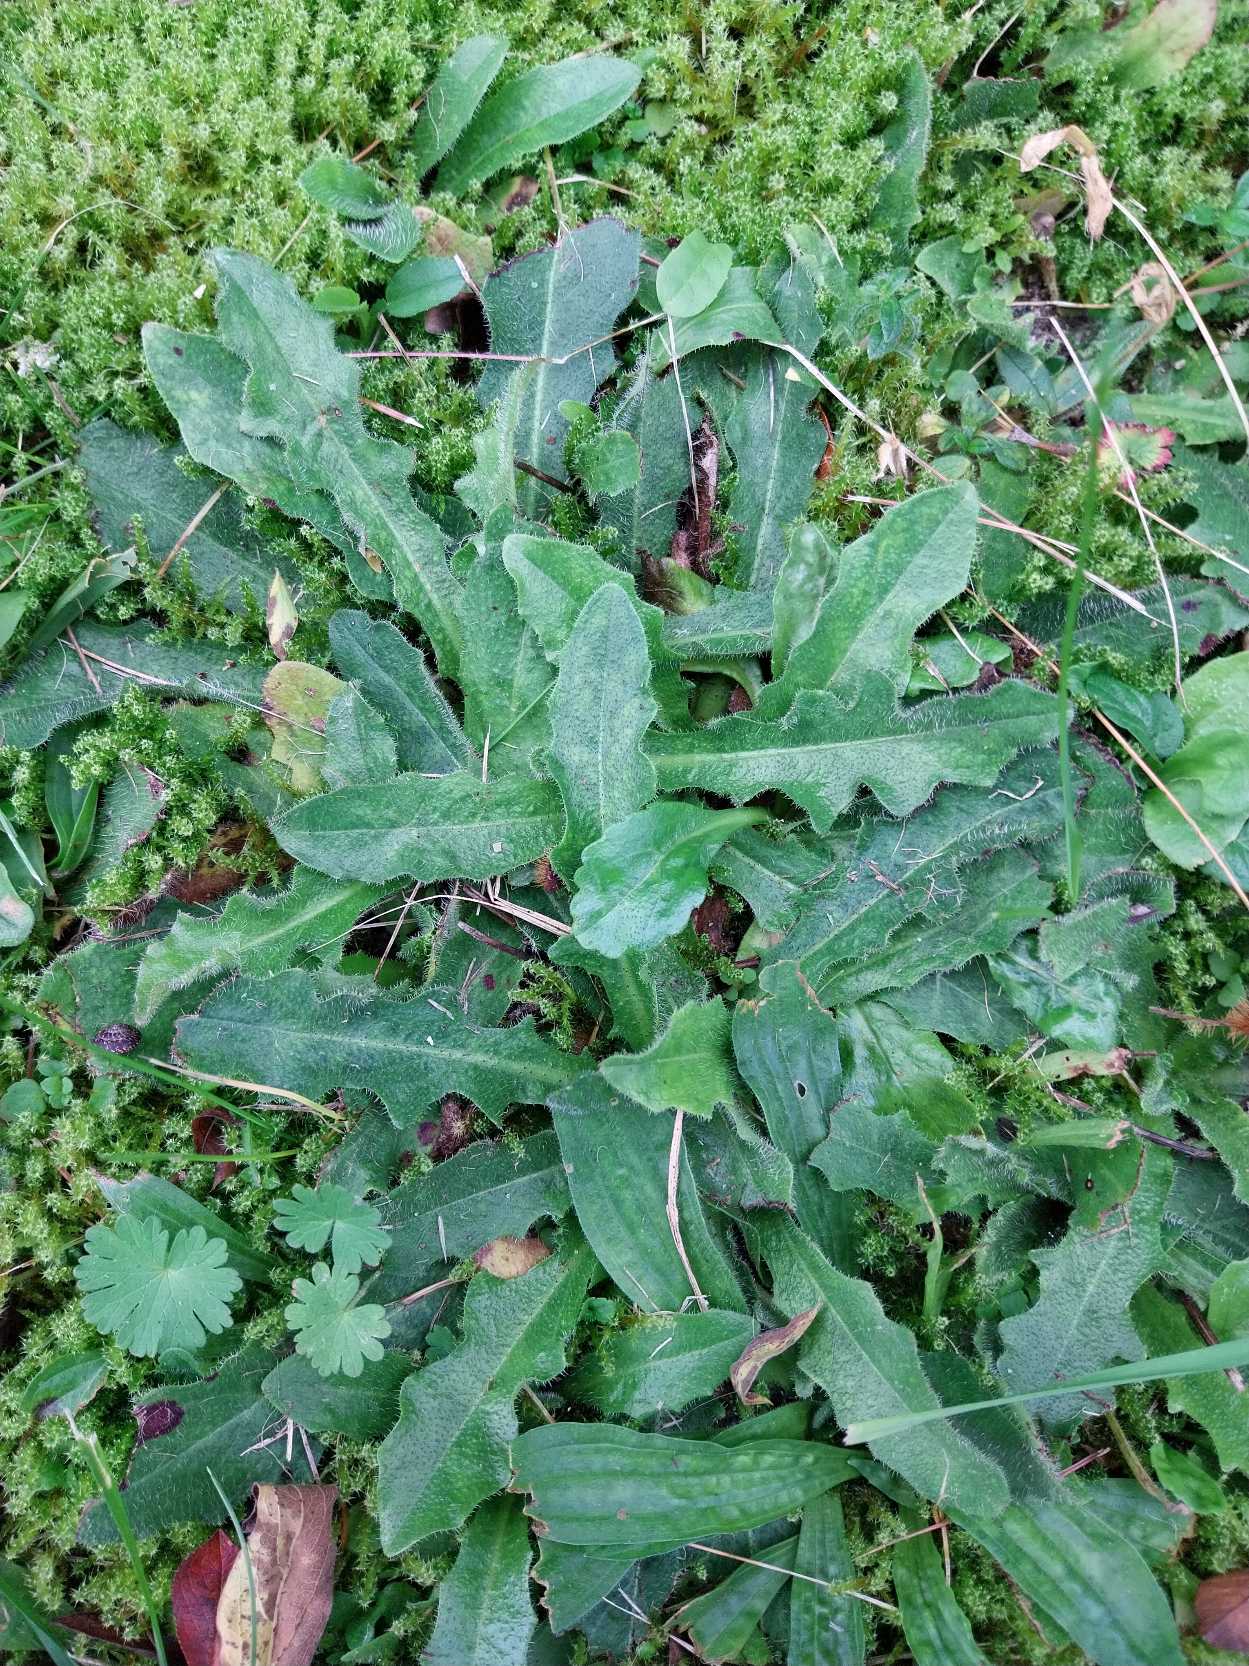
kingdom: Plantae
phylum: Tracheophyta
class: Magnoliopsida
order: Asterales
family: Asteraceae
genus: Hypochaeris
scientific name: Hypochaeris radicata
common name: Almindelig kongepen
